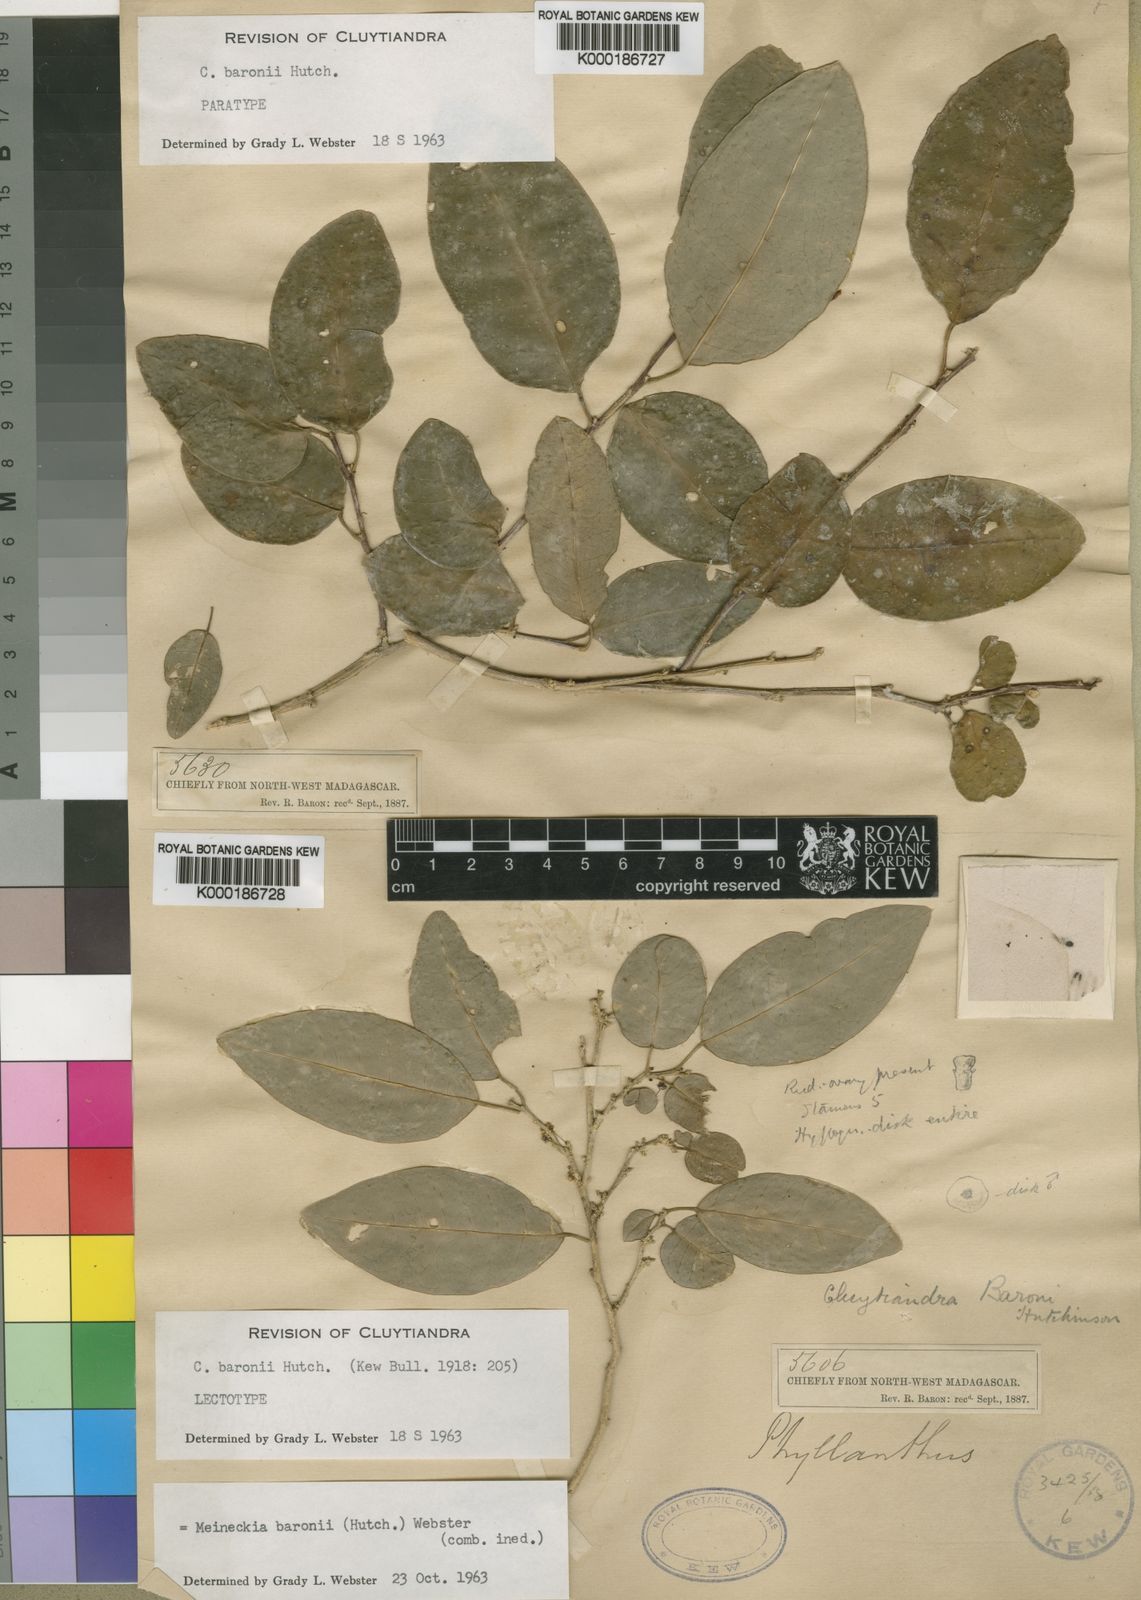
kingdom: Plantae
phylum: Tracheophyta
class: Magnoliopsida
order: Malpighiales
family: Phyllanthaceae
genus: Meineckia
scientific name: Meineckia baronii
